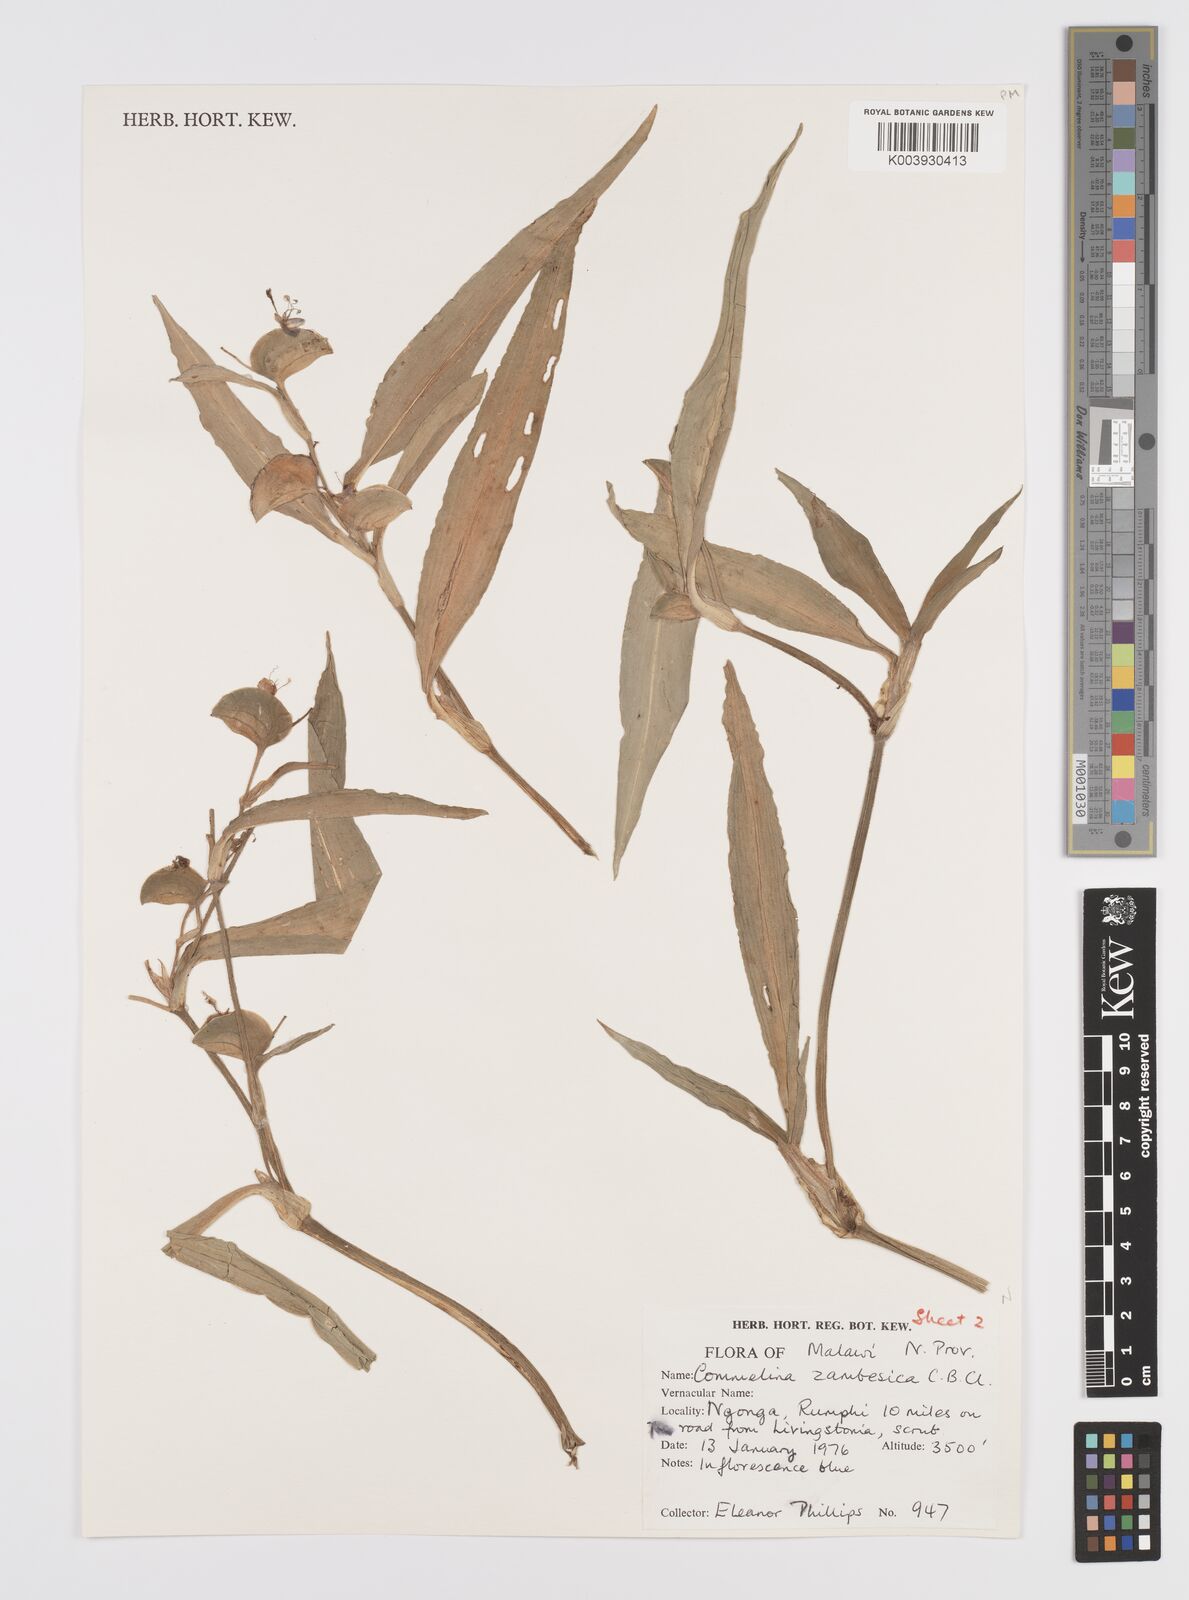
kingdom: Plantae
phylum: Tracheophyta
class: Liliopsida
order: Commelinales
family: Commelinaceae
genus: Commelina
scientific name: Commelina zambesica
